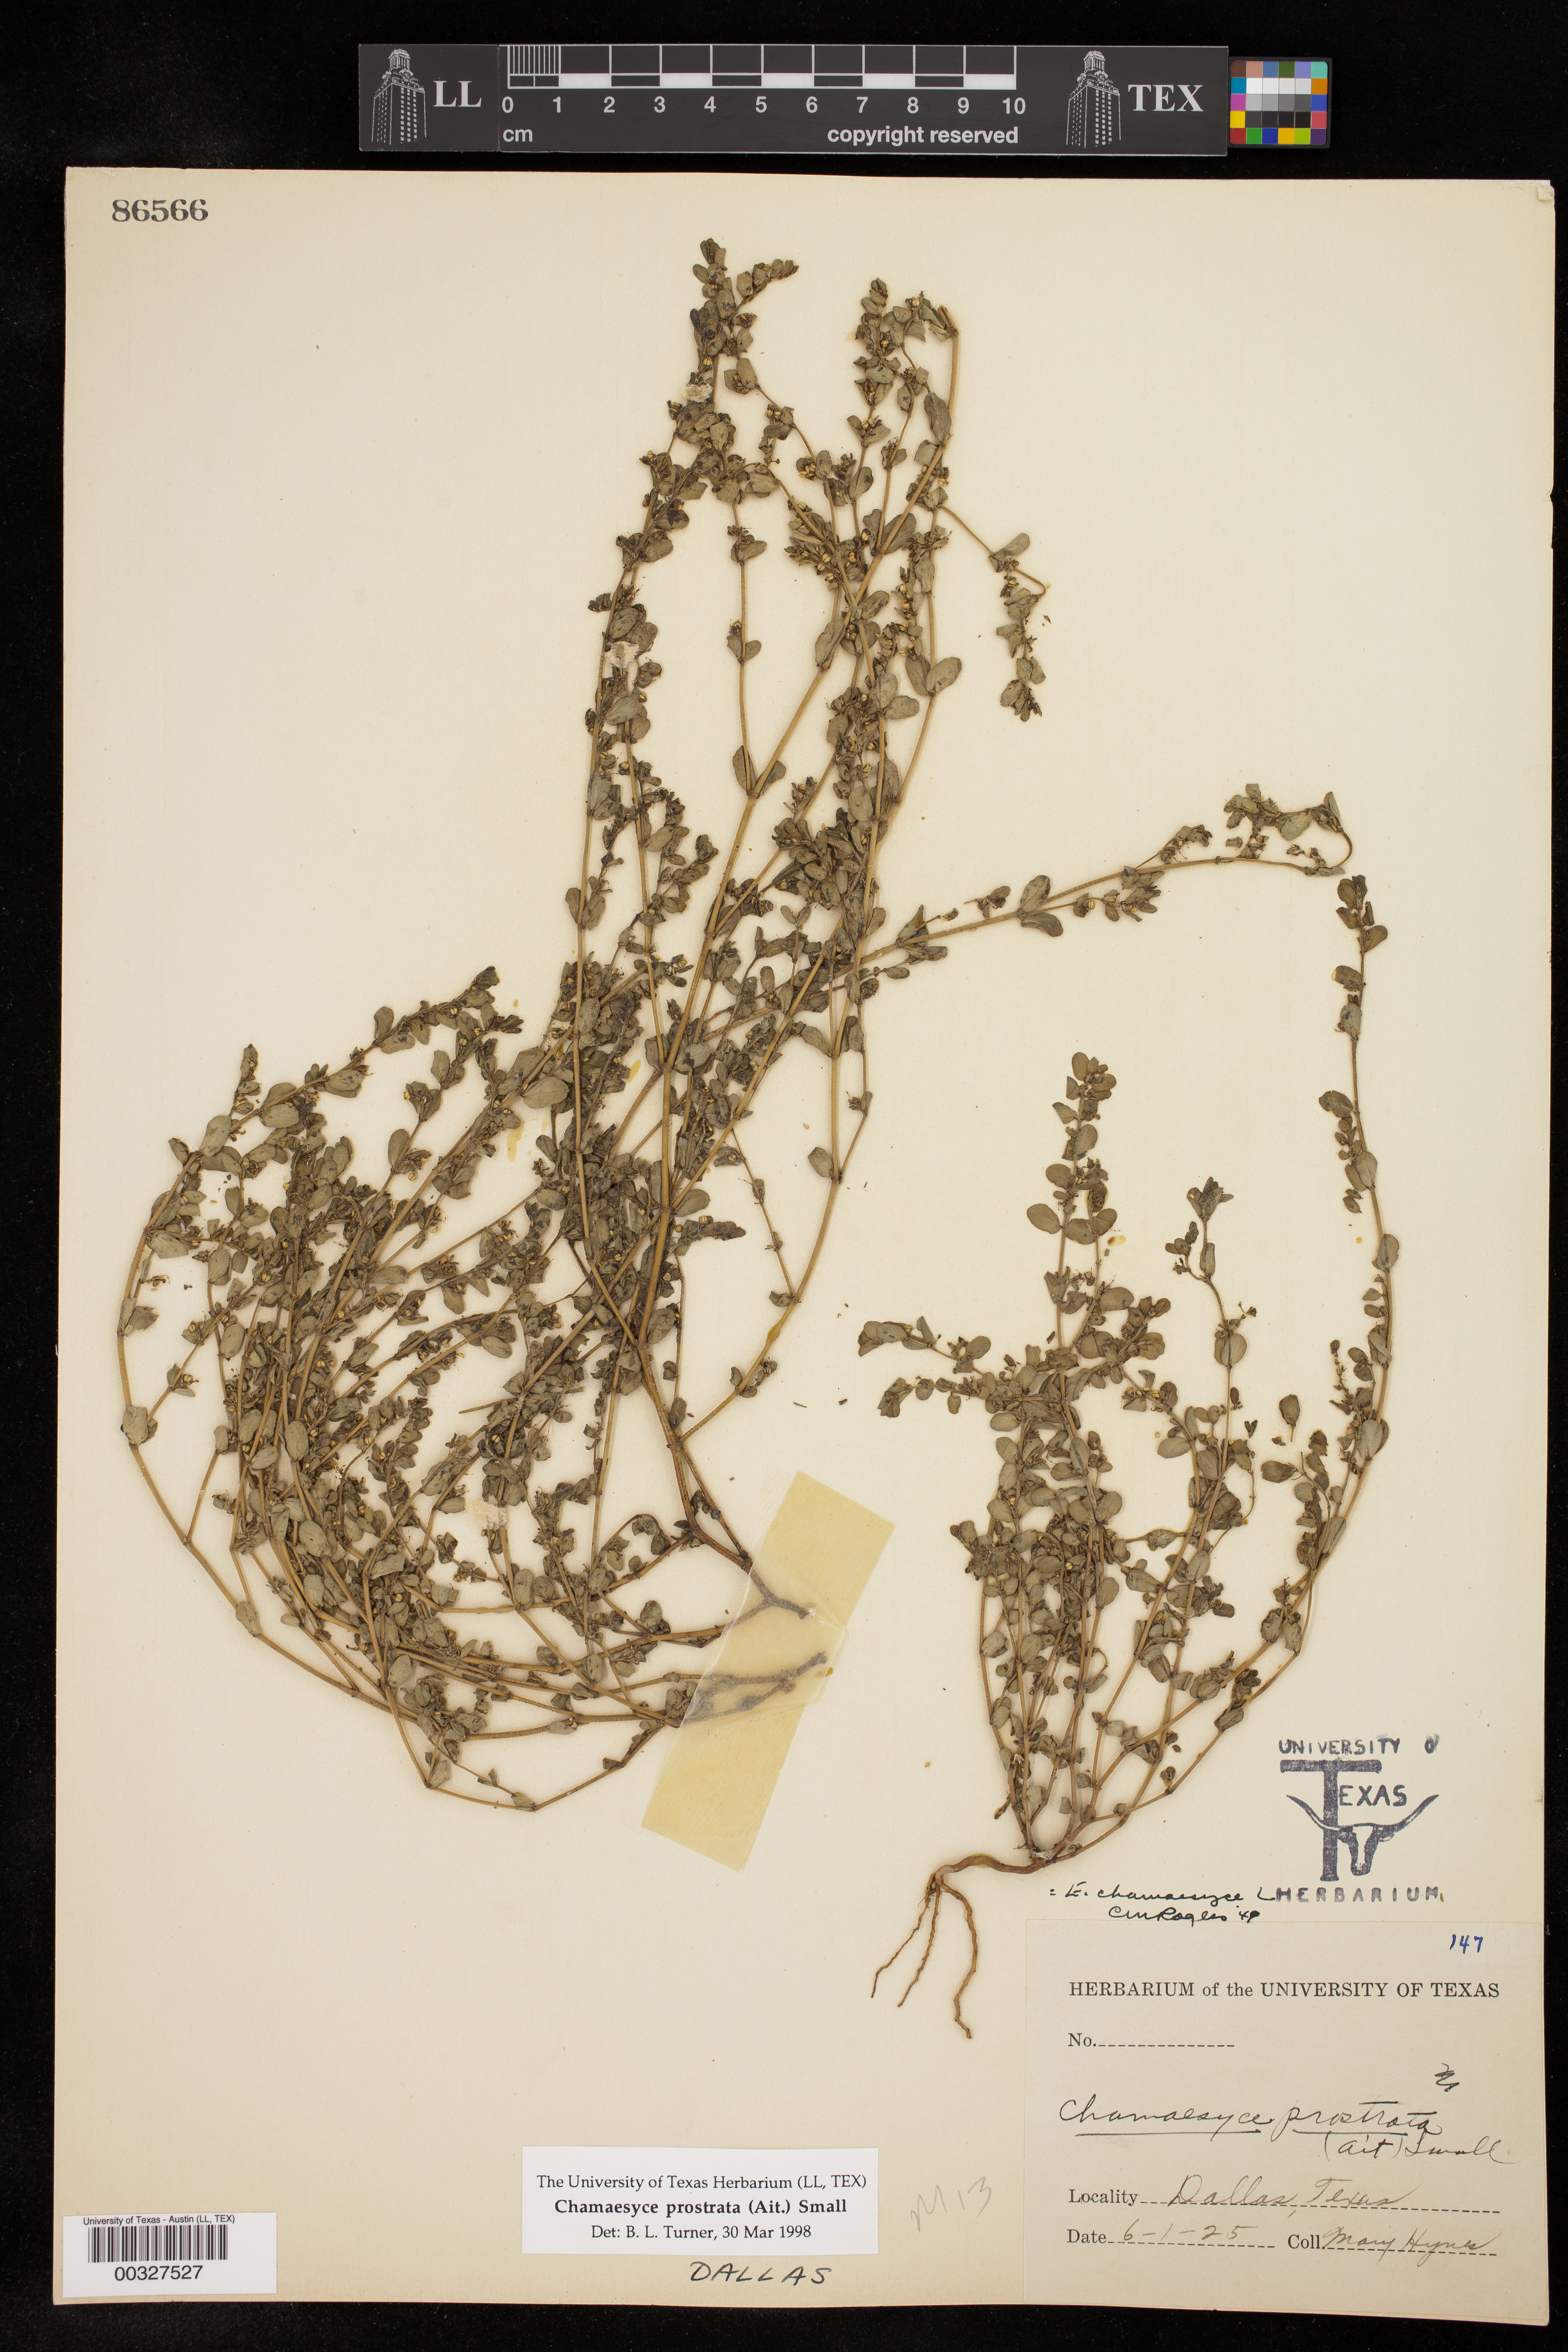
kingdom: Plantae
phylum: Tracheophyta
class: Magnoliopsida
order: Malpighiales
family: Euphorbiaceae
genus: Euphorbia
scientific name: Euphorbia prostrata
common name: Prostrate sandmat
